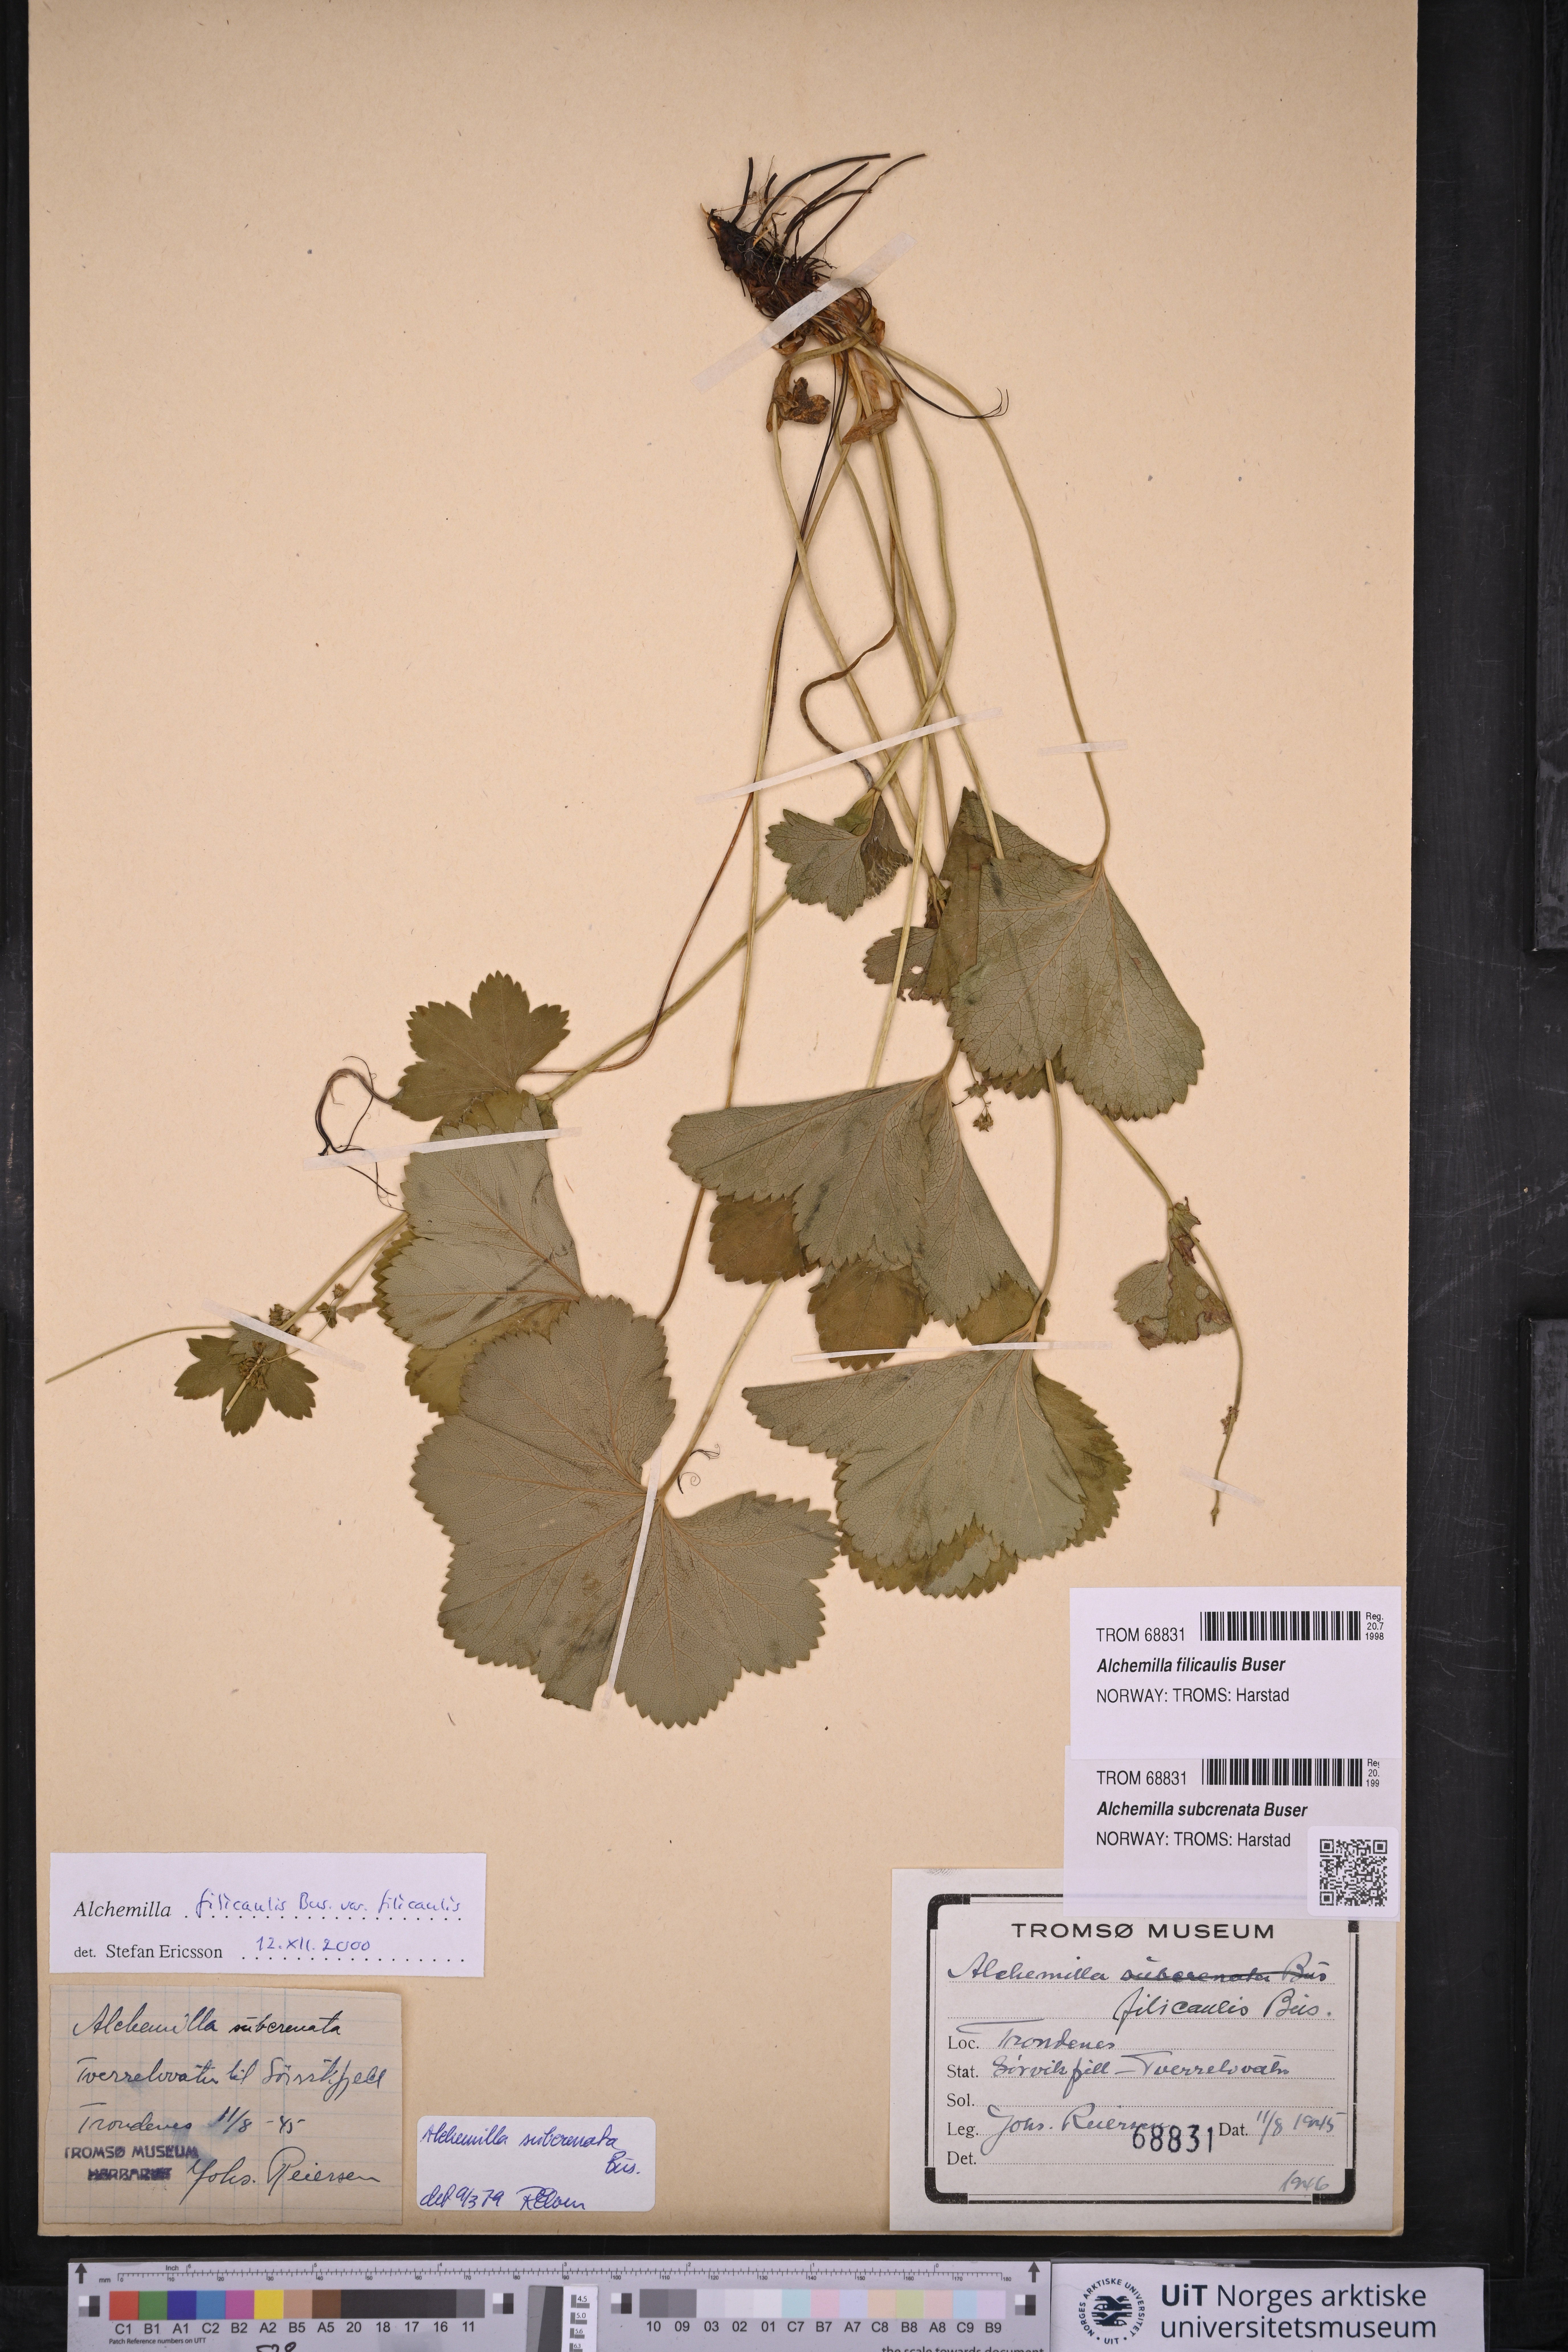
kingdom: Plantae
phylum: Tracheophyta
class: Magnoliopsida
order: Rosales
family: Rosaceae
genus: Alchemilla
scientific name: Alchemilla filicaulis
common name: Hairy lady's-mantle
